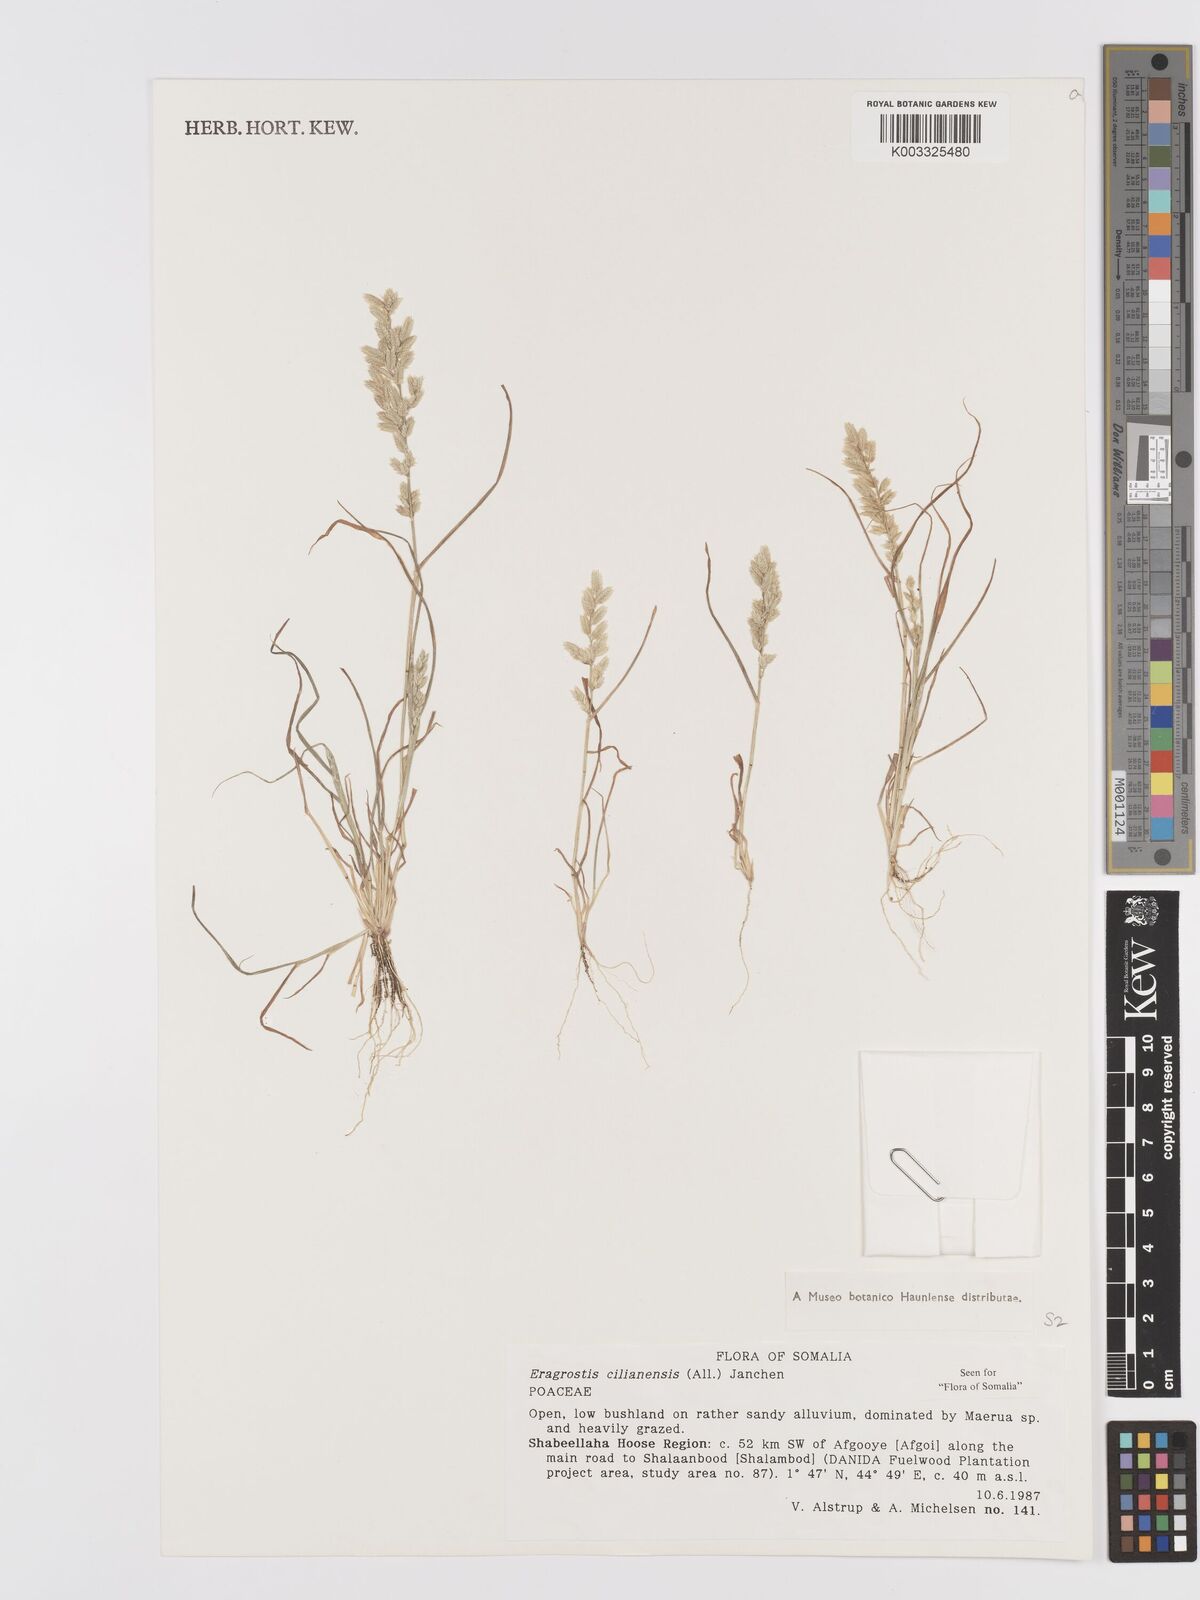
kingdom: Plantae
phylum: Tracheophyta
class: Liliopsida
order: Poales
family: Poaceae
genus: Eragrostis
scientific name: Eragrostis cilianensis
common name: Stinkgrass
